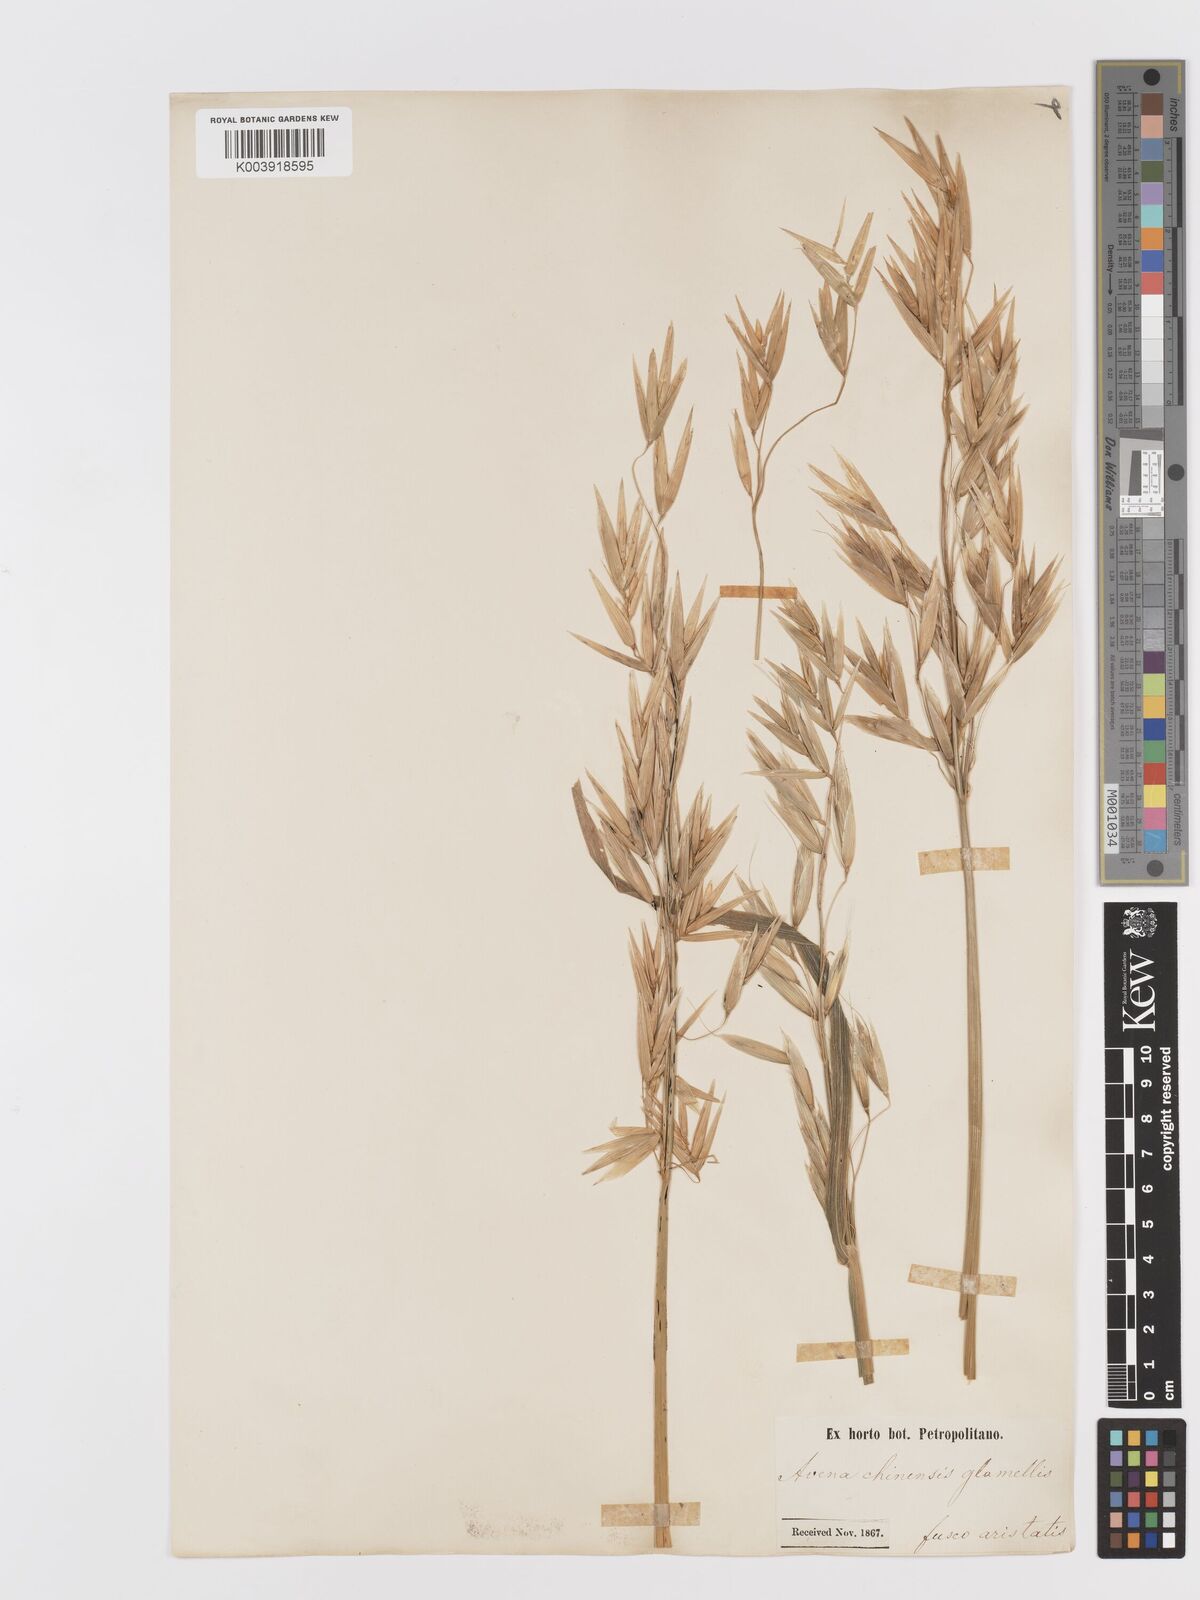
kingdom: Plantae
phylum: Tracheophyta
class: Liliopsida
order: Poales
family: Poaceae
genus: Avena
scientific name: Avena chinensis
